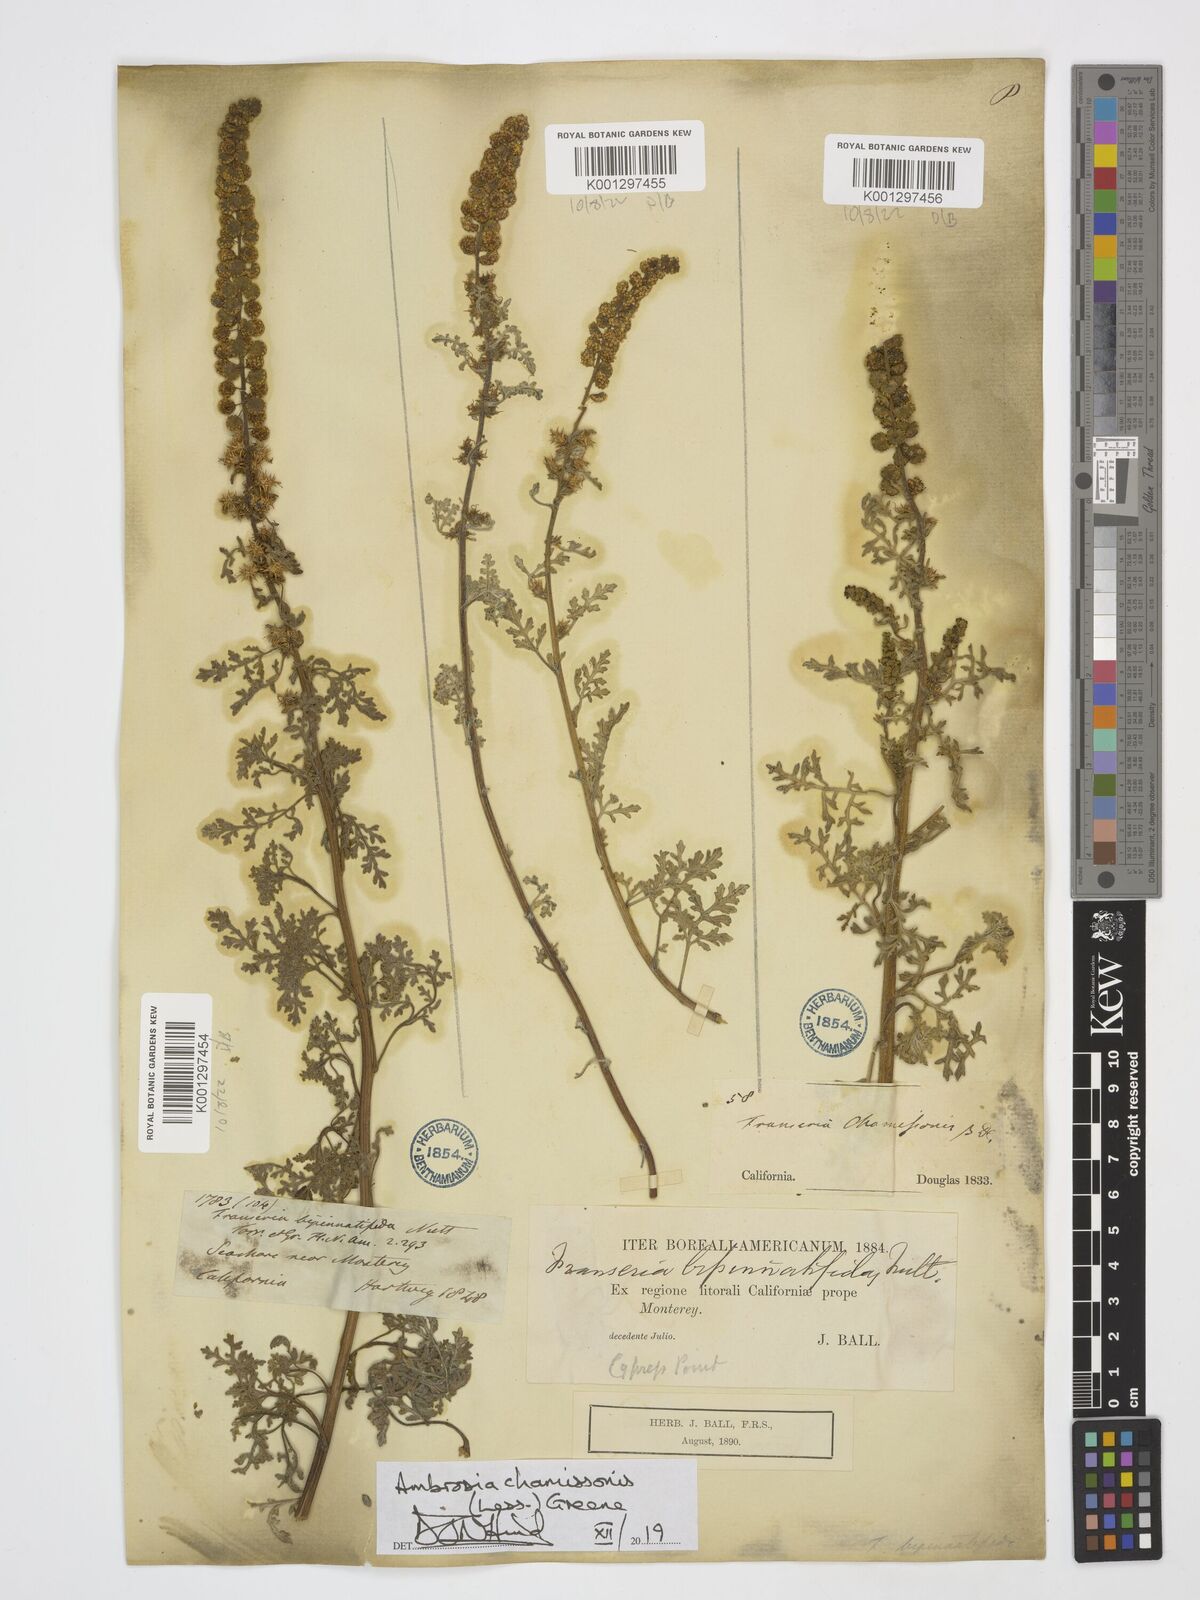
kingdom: Plantae
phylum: Tracheophyta
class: Magnoliopsida
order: Asterales
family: Asteraceae
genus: Ambrosia
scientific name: Ambrosia chamissonis
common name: Beachbur
